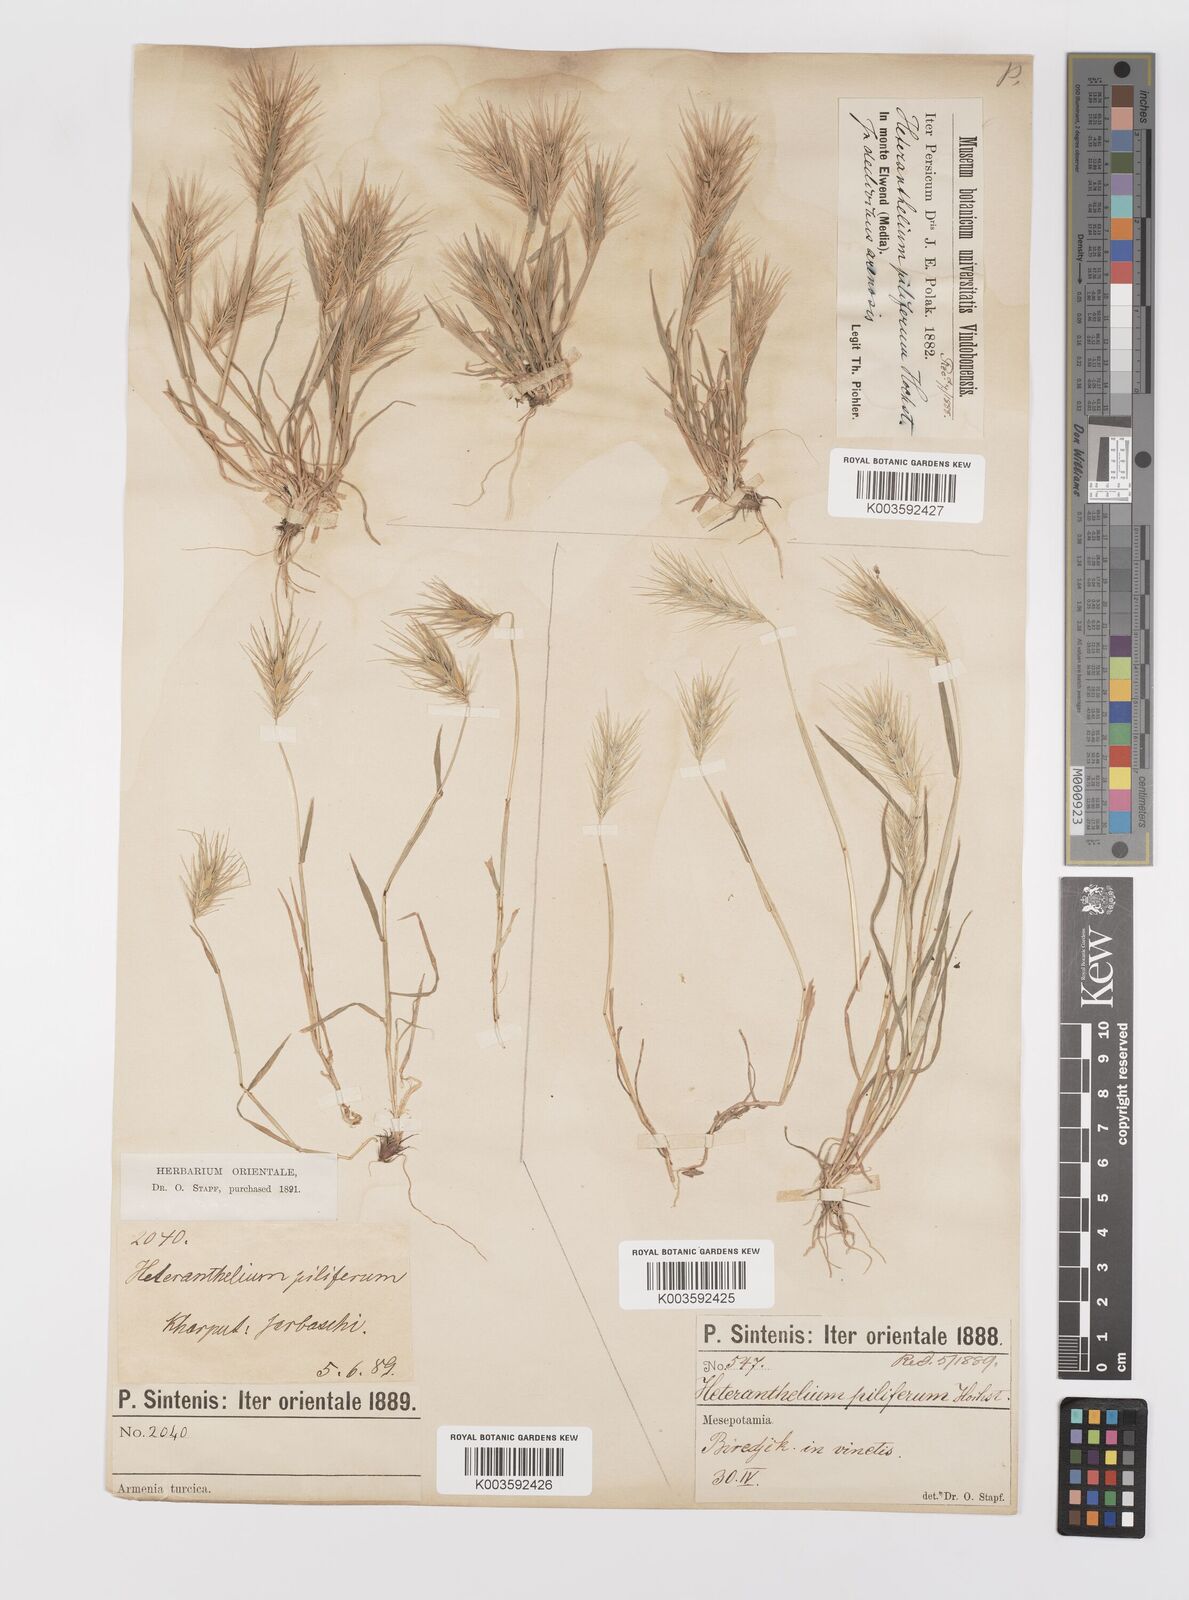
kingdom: Plantae
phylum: Tracheophyta
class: Liliopsida
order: Poales
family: Poaceae
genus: Heteranthelium
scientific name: Heteranthelium piliferum
